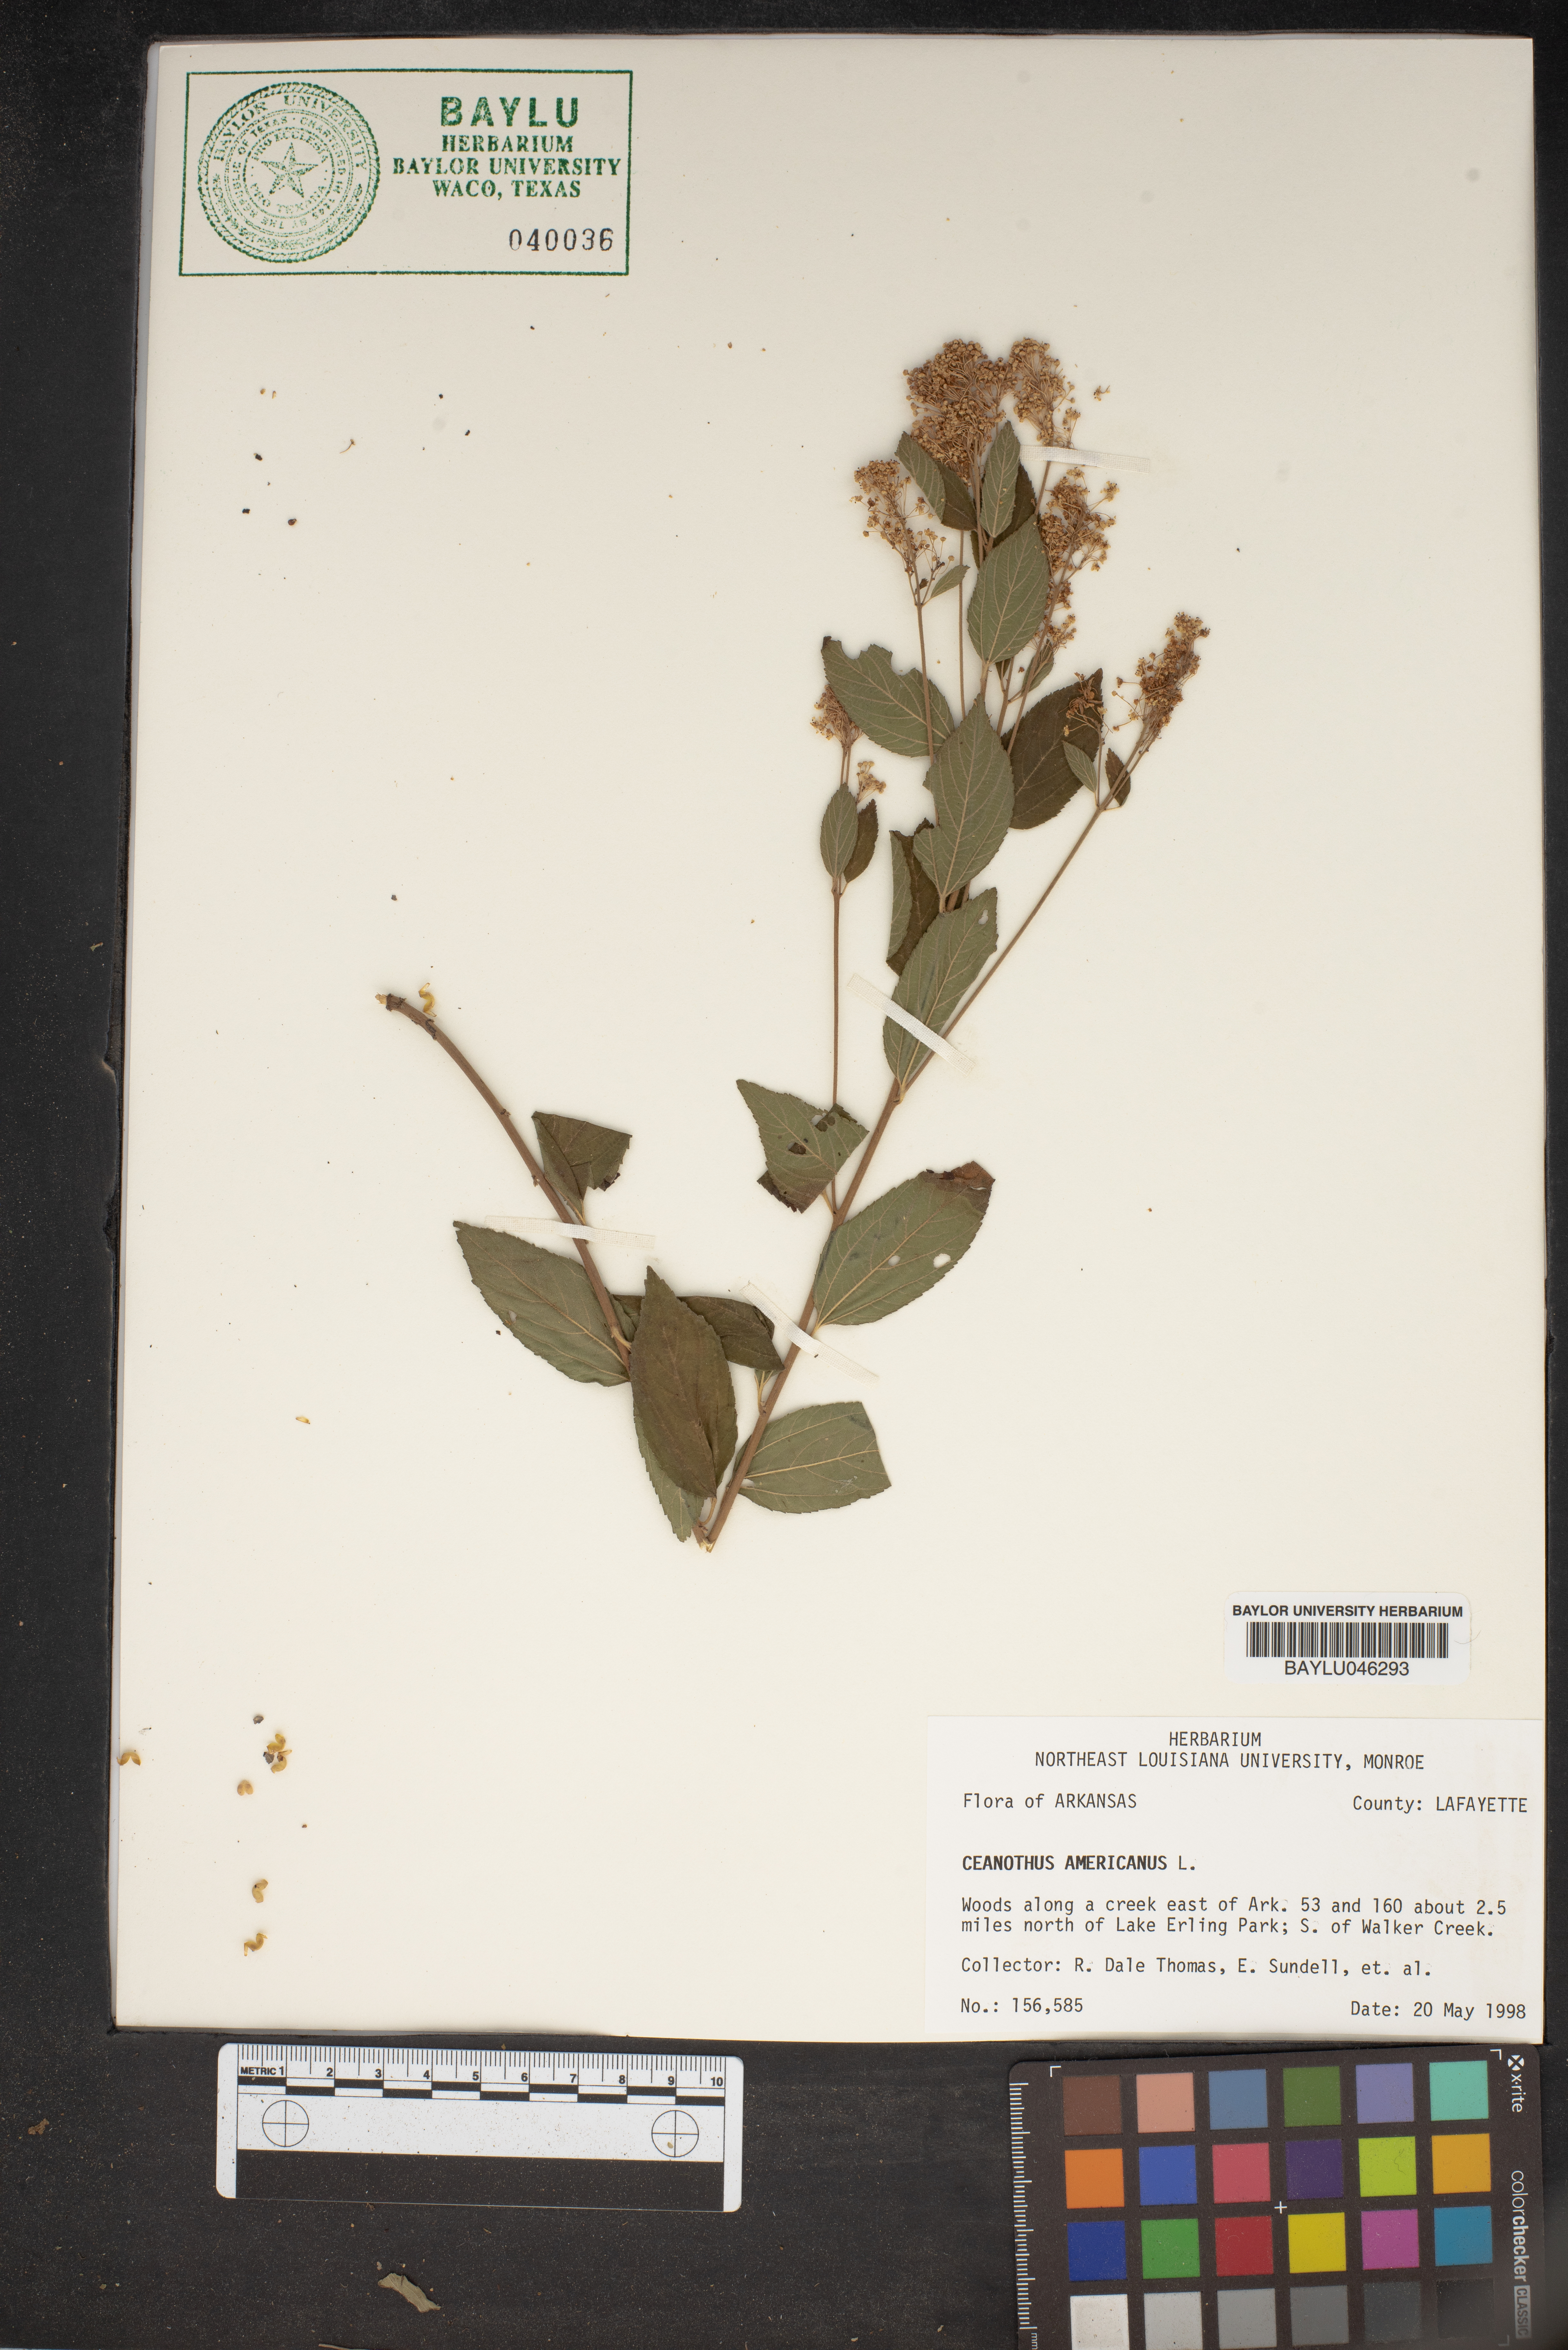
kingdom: Plantae
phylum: Tracheophyta
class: Magnoliopsida
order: Rosales
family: Rhamnaceae
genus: Ceanothus
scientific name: Ceanothus americanus
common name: Redroot
